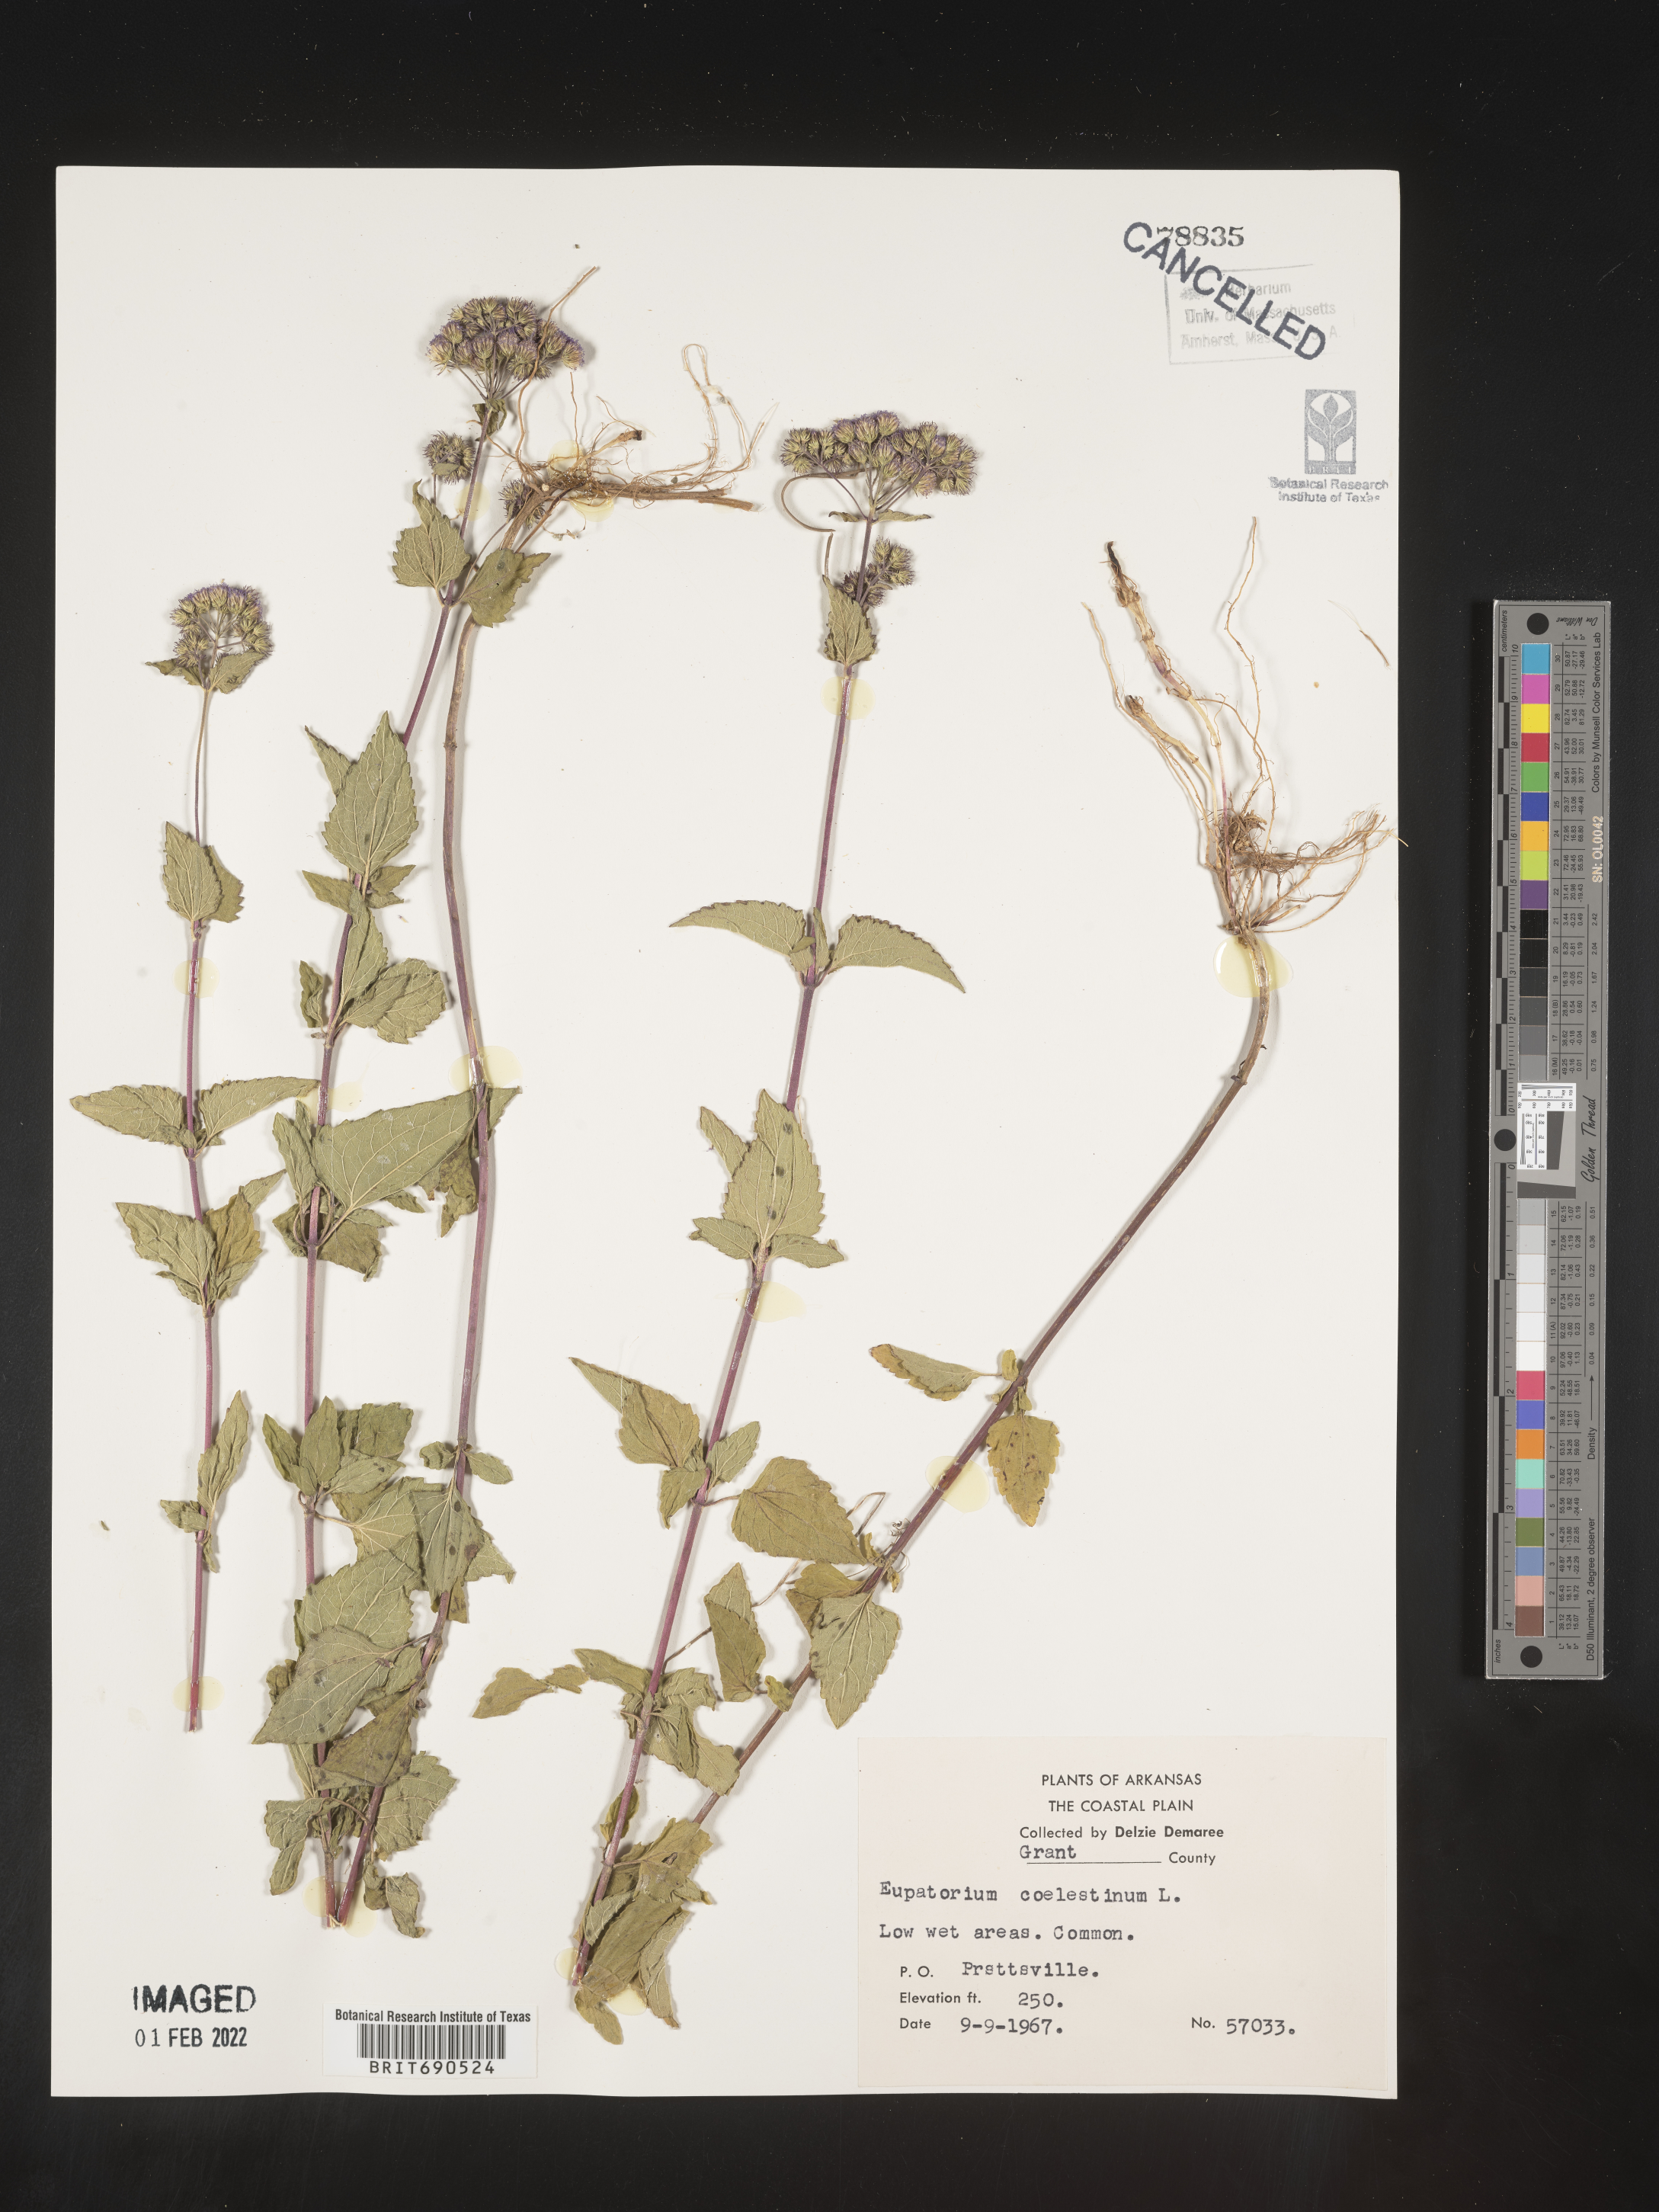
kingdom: Plantae
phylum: Tracheophyta
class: Magnoliopsida
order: Asterales
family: Asteraceae
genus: Conoclinium
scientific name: Conoclinium coelestinum
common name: Blue mistflower
